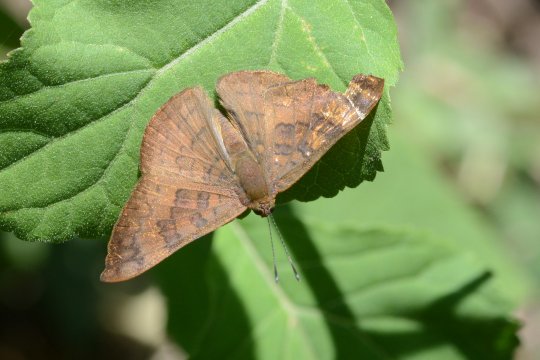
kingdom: Animalia
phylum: Arthropoda
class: Insecta
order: Lepidoptera
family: Lycaenidae
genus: Emesis
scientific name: Emesis tegula
